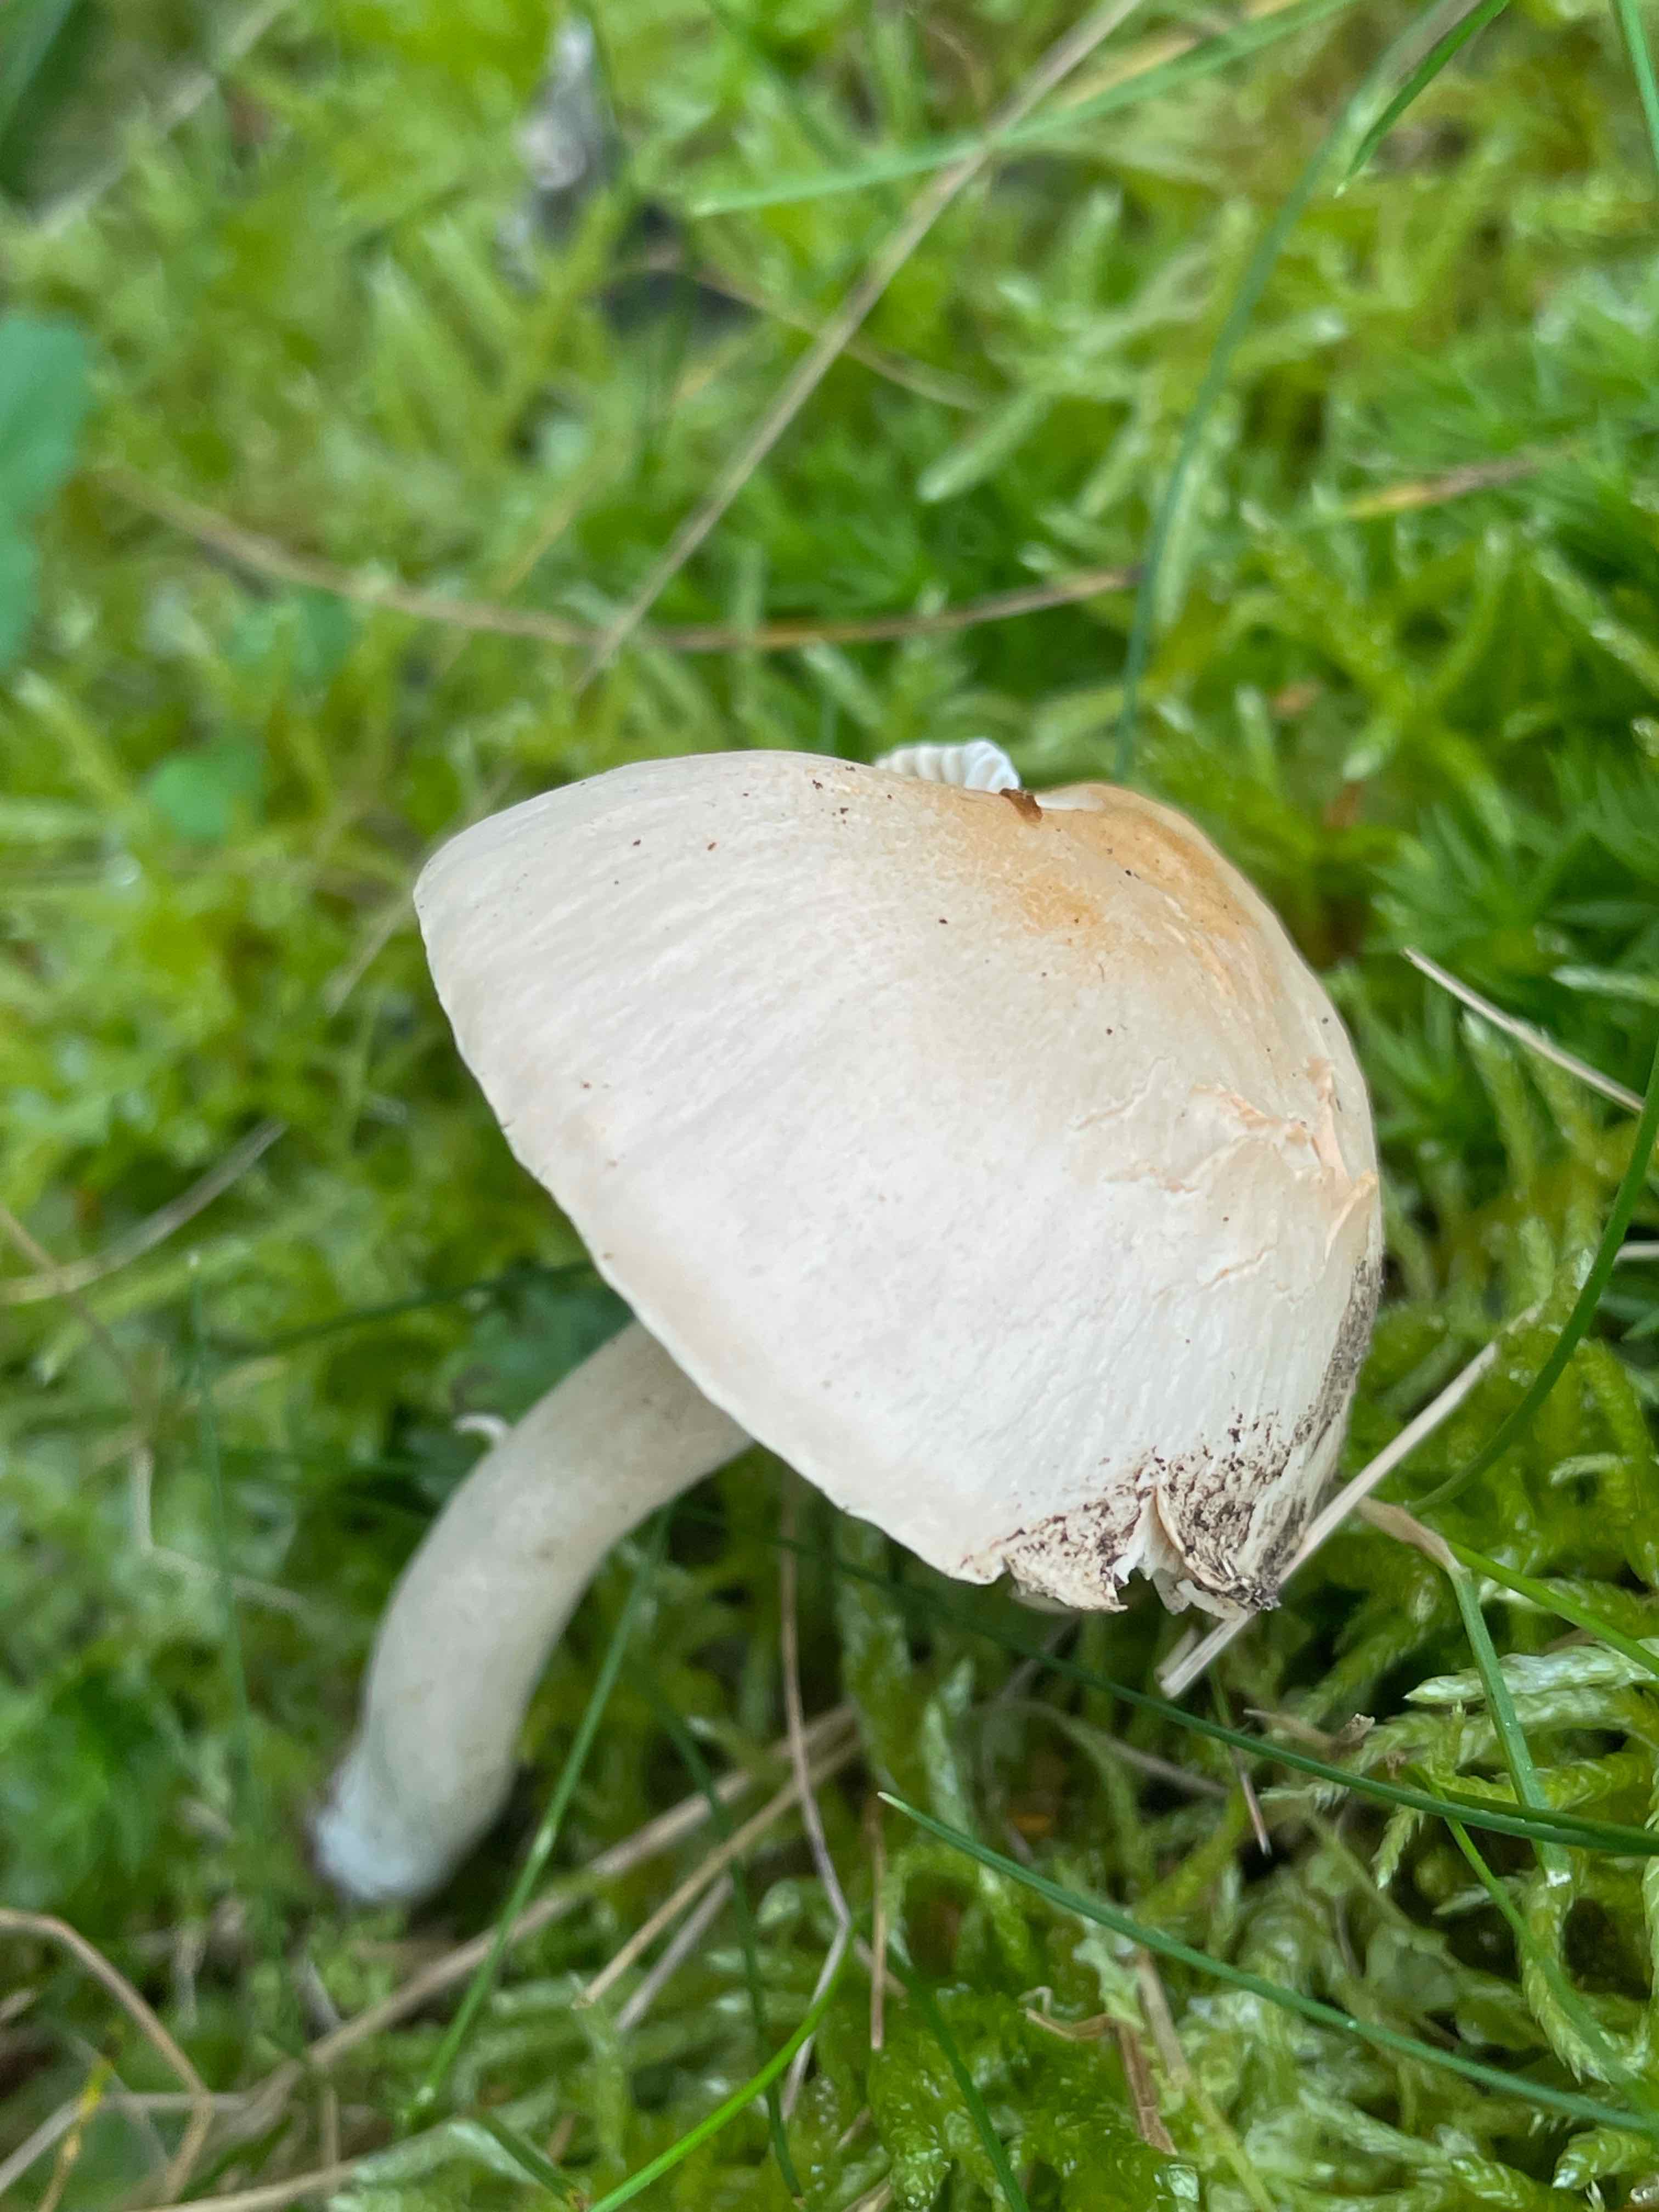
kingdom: Fungi
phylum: Basidiomycota
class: Agaricomycetes
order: Agaricales
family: Hygrophoraceae
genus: Cuphophyllus
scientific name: Cuphophyllus
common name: vokshat
